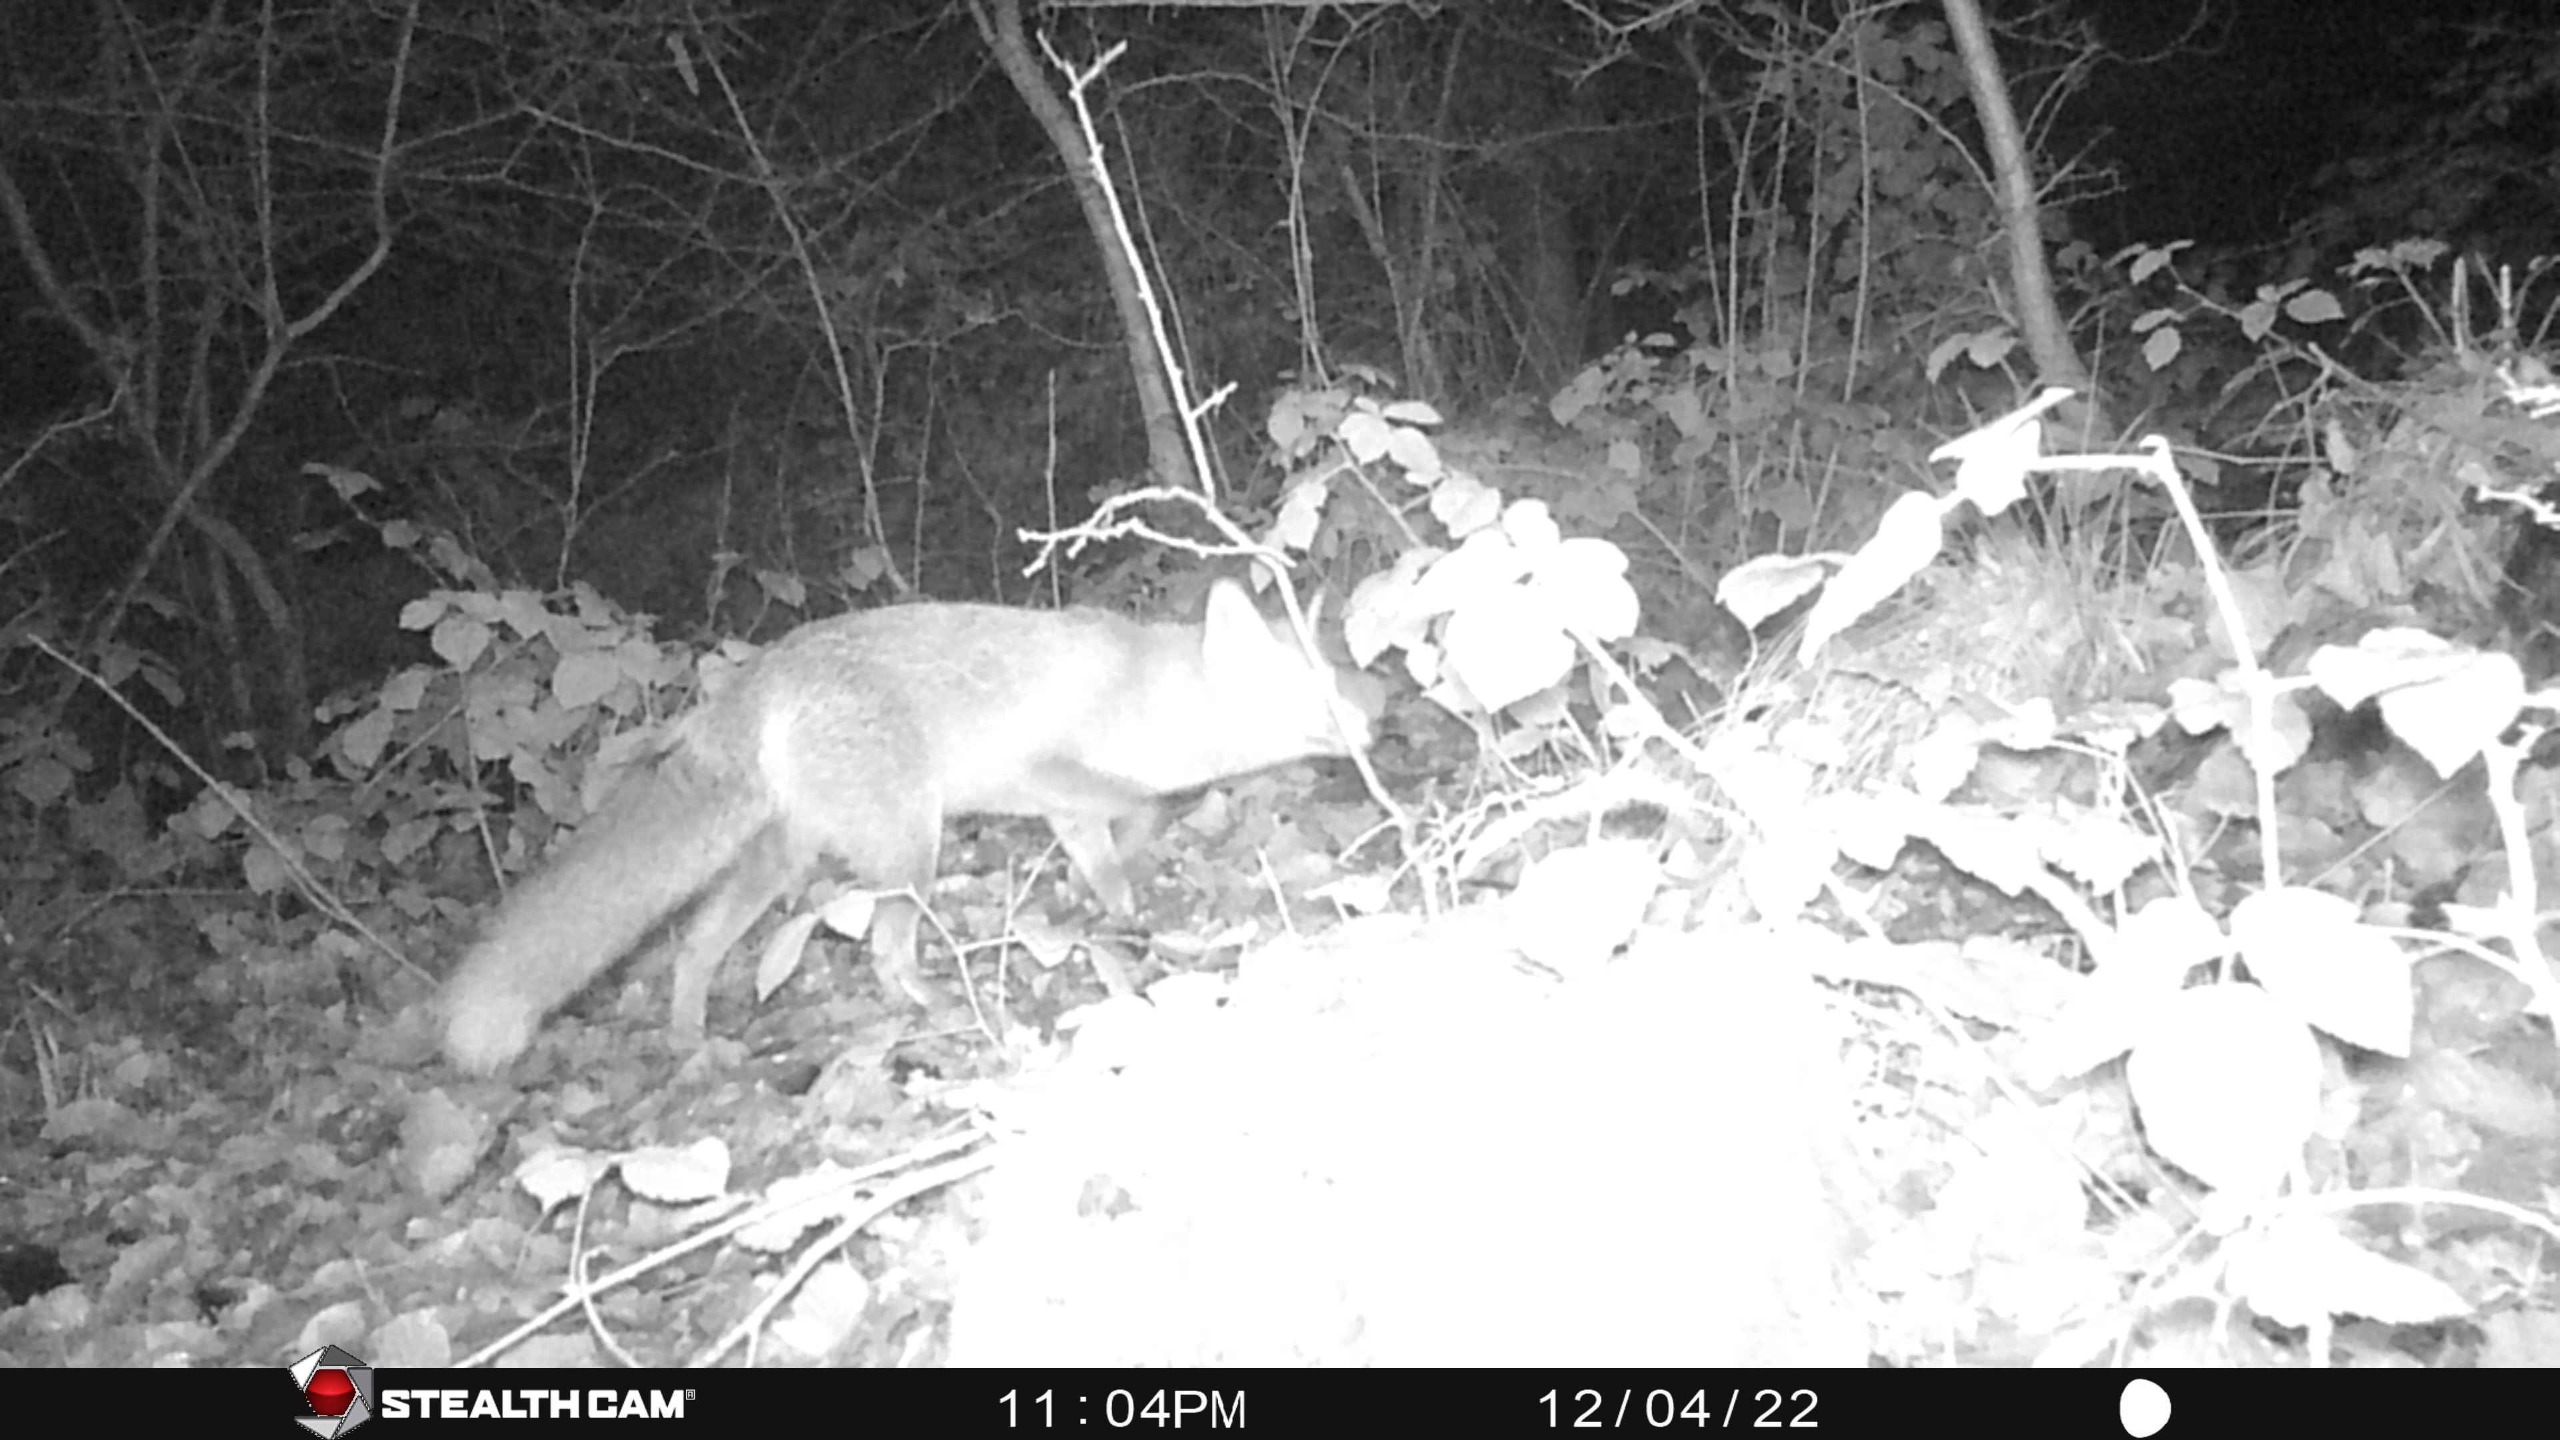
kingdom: Animalia
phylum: Chordata
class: Mammalia
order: Carnivora
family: Canidae
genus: Vulpes
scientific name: Vulpes vulpes
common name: Ræv
